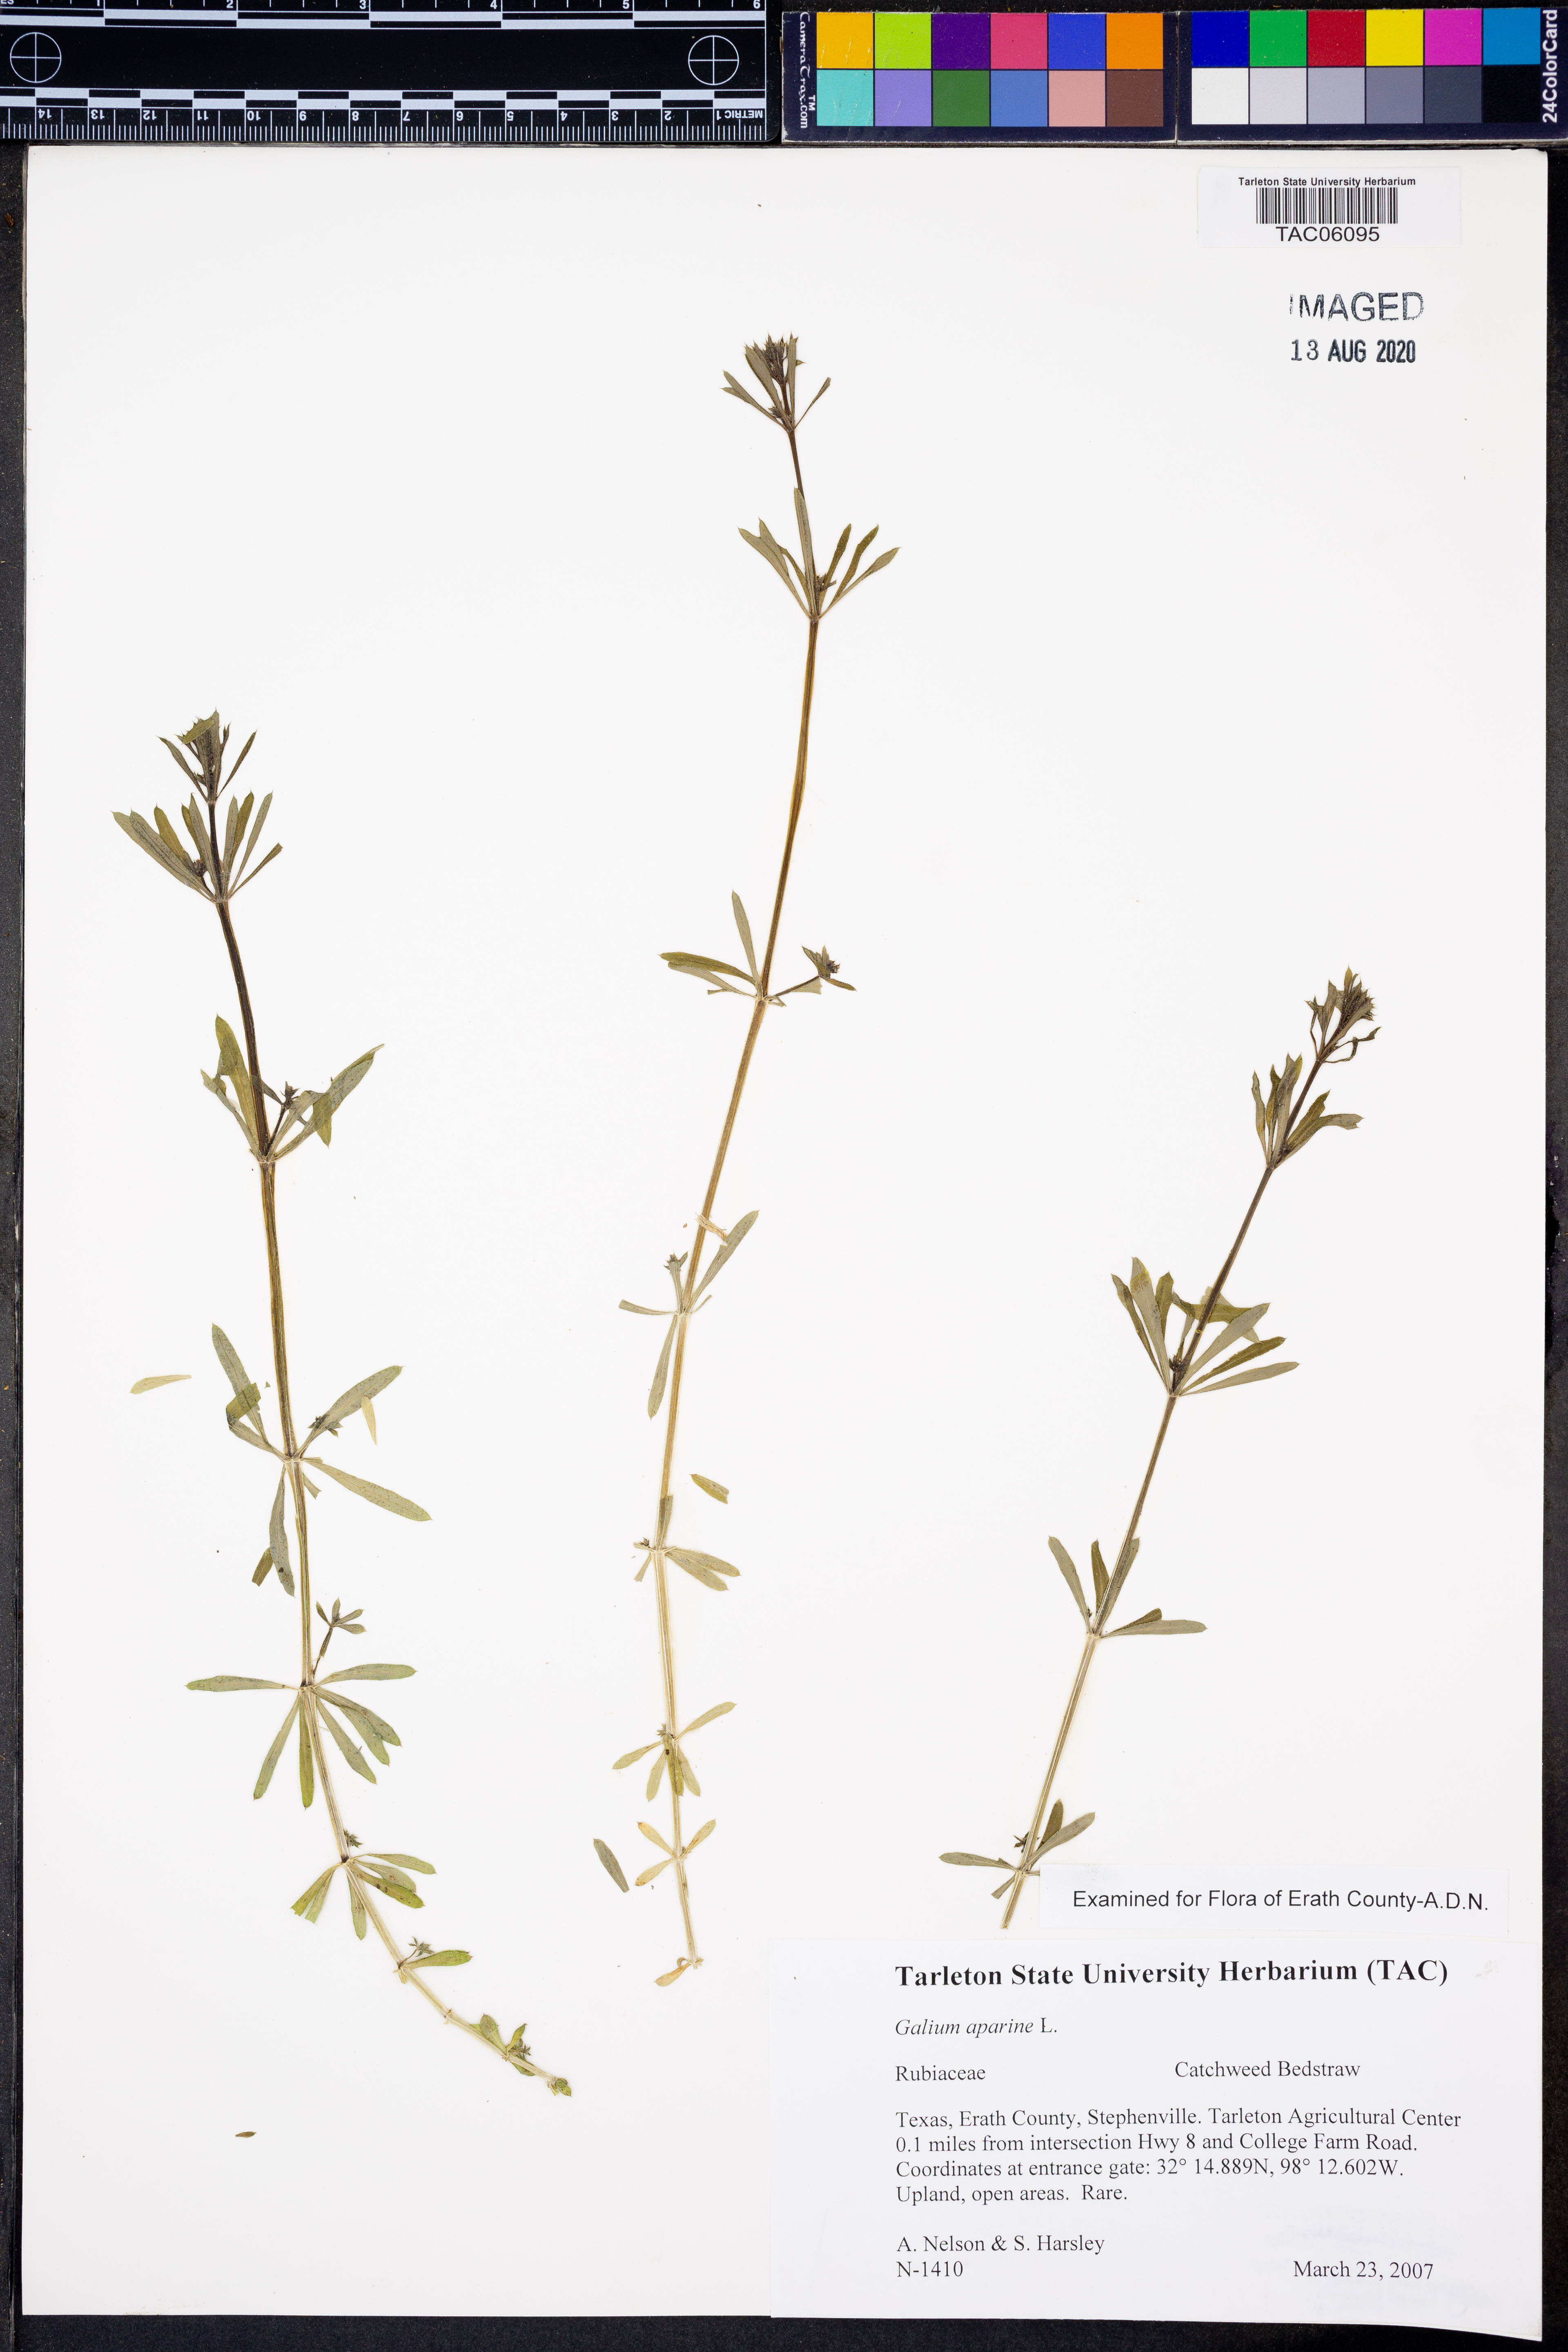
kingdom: Plantae
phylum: Tracheophyta
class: Magnoliopsida
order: Gentianales
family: Rubiaceae
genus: Galium
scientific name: Galium aparine
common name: Cleavers
